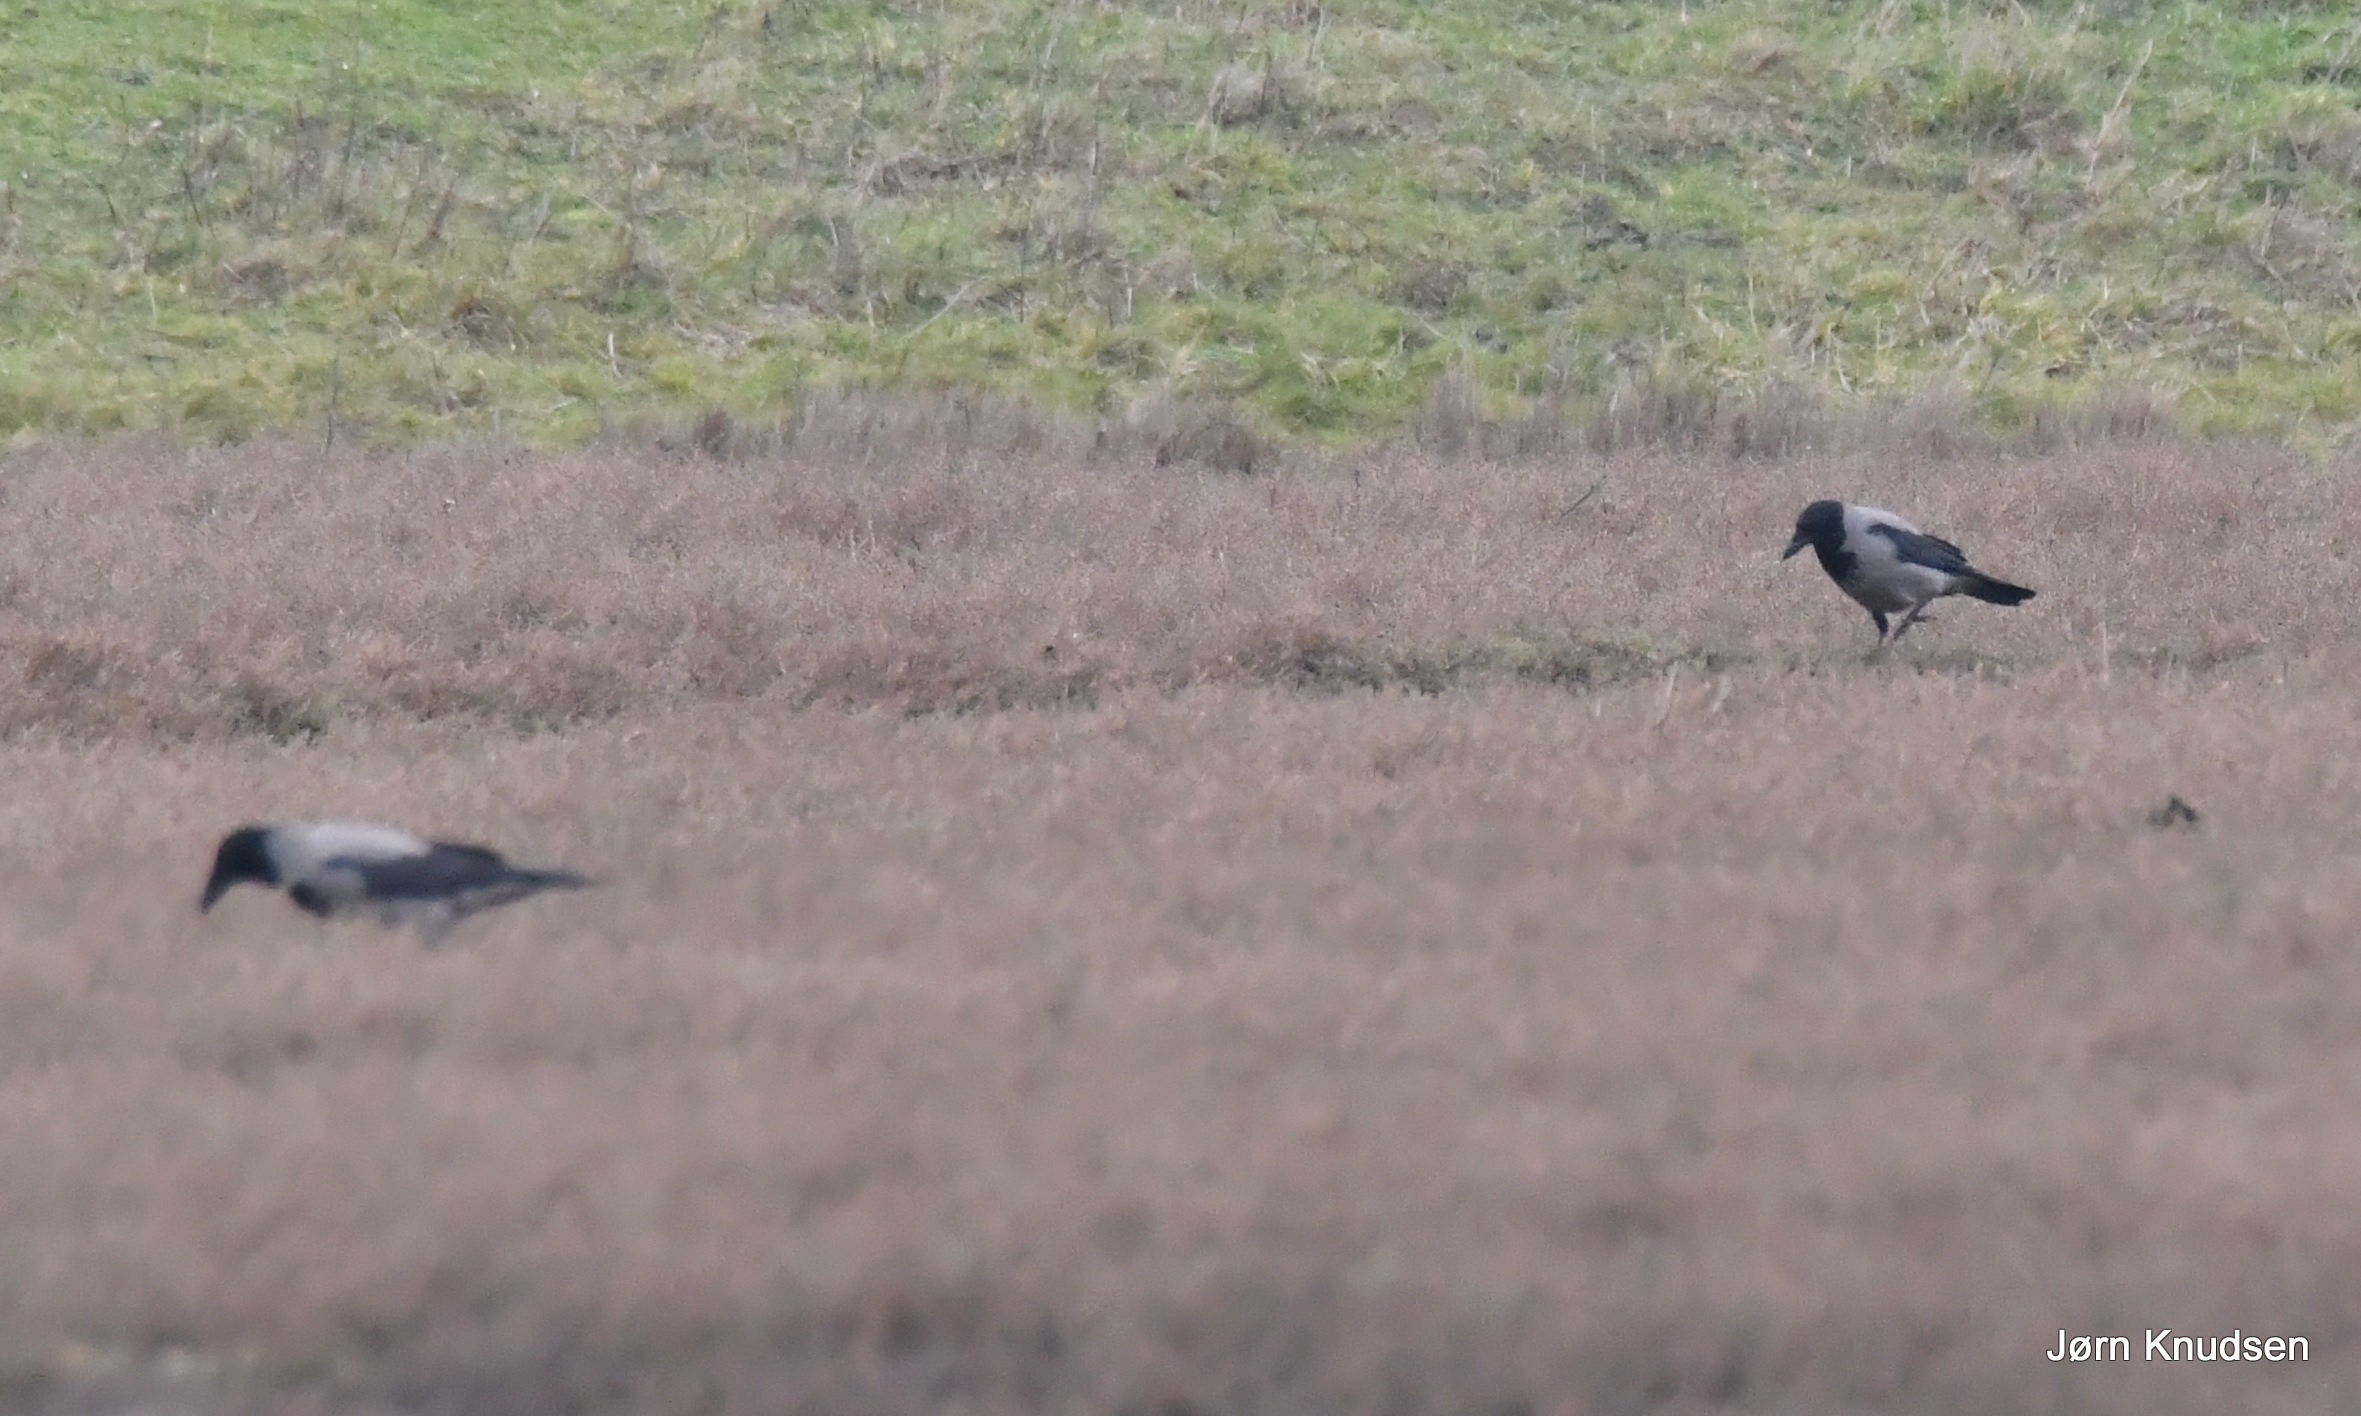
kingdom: Animalia
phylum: Chordata
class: Aves
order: Passeriformes
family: Corvidae
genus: Corvus
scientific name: Corvus cornix
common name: Gråkrage
